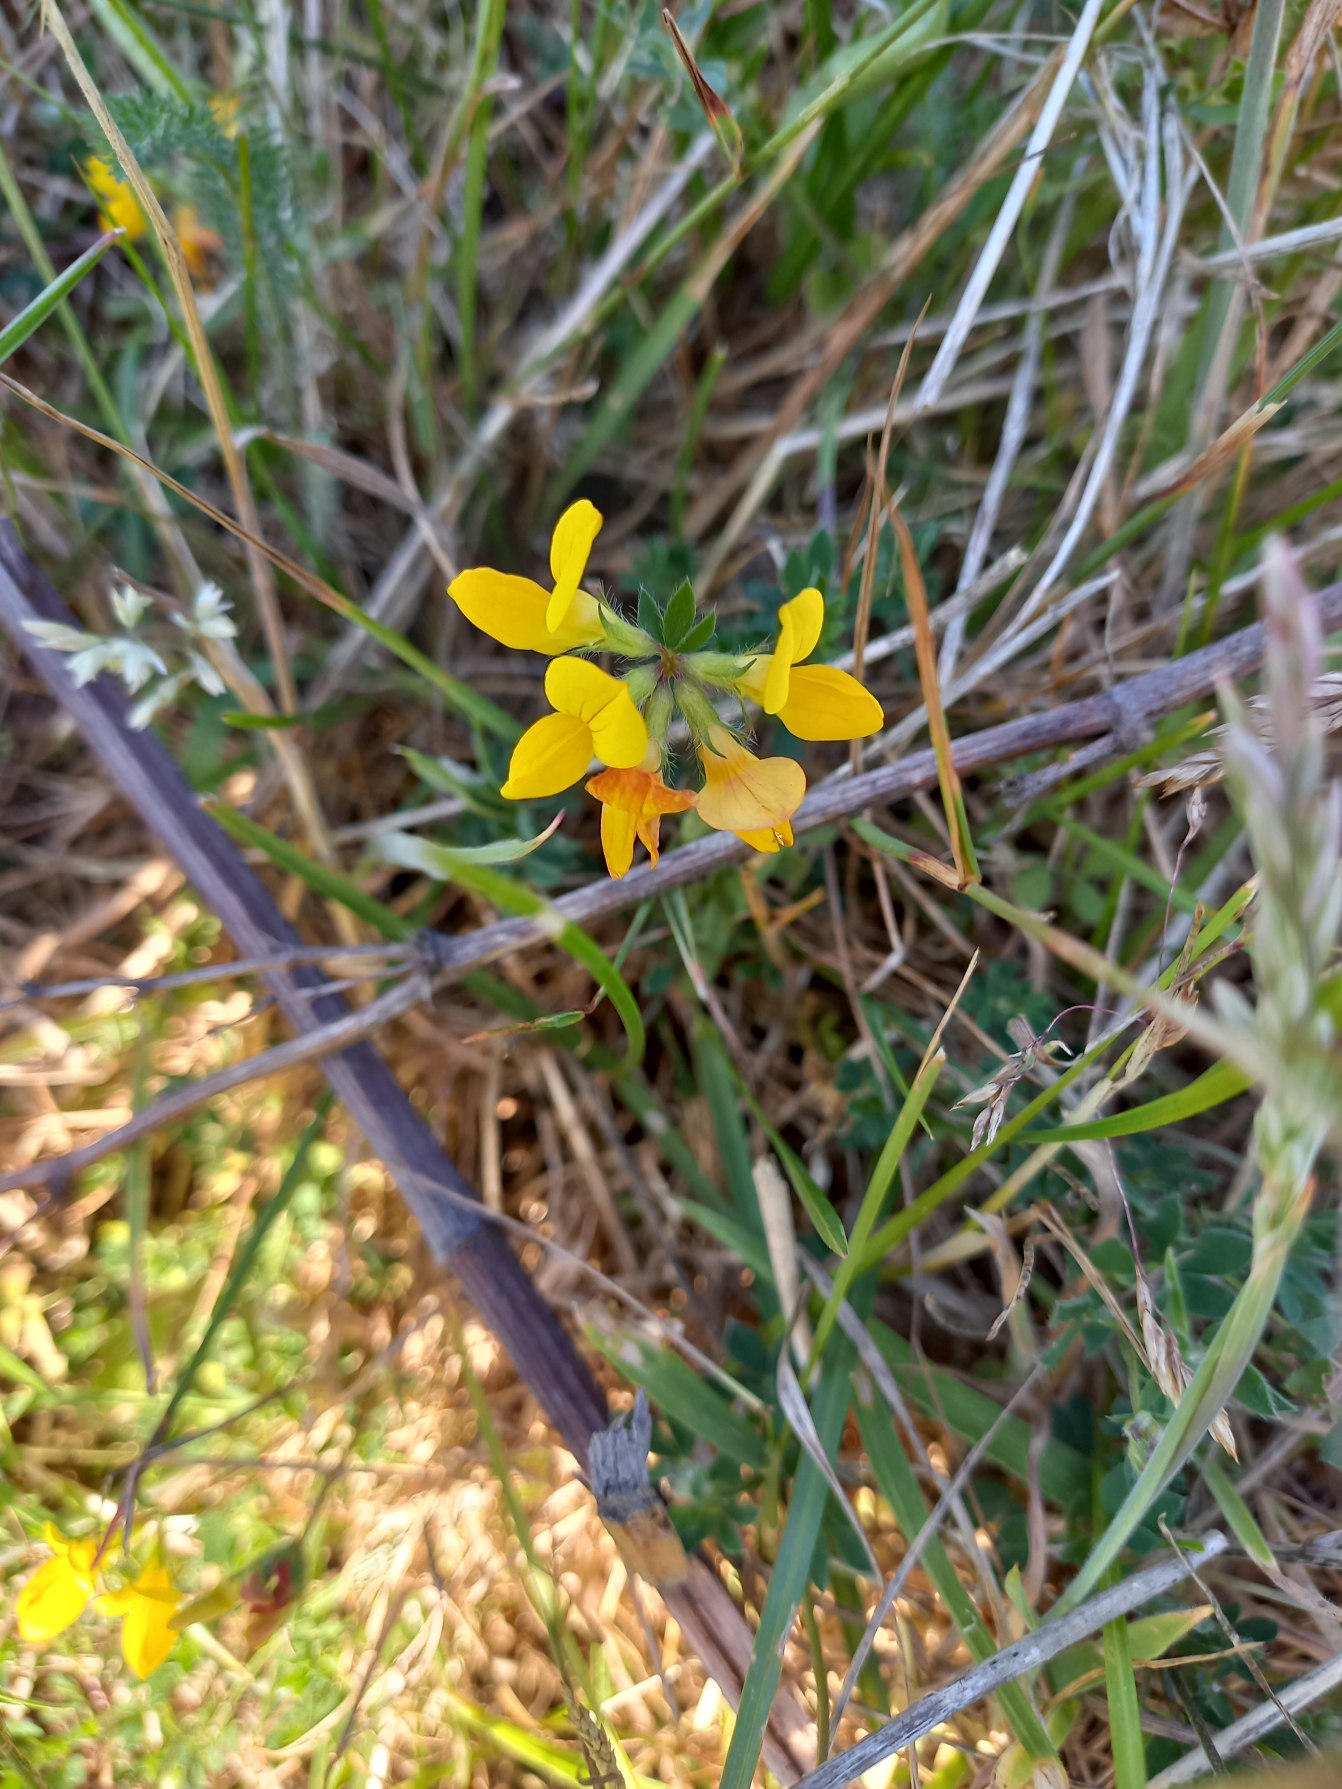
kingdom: Plantae
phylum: Tracheophyta
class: Magnoliopsida
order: Fabales
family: Fabaceae
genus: Lotus
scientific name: Lotus corniculatus
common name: Almindelig kællingetand
